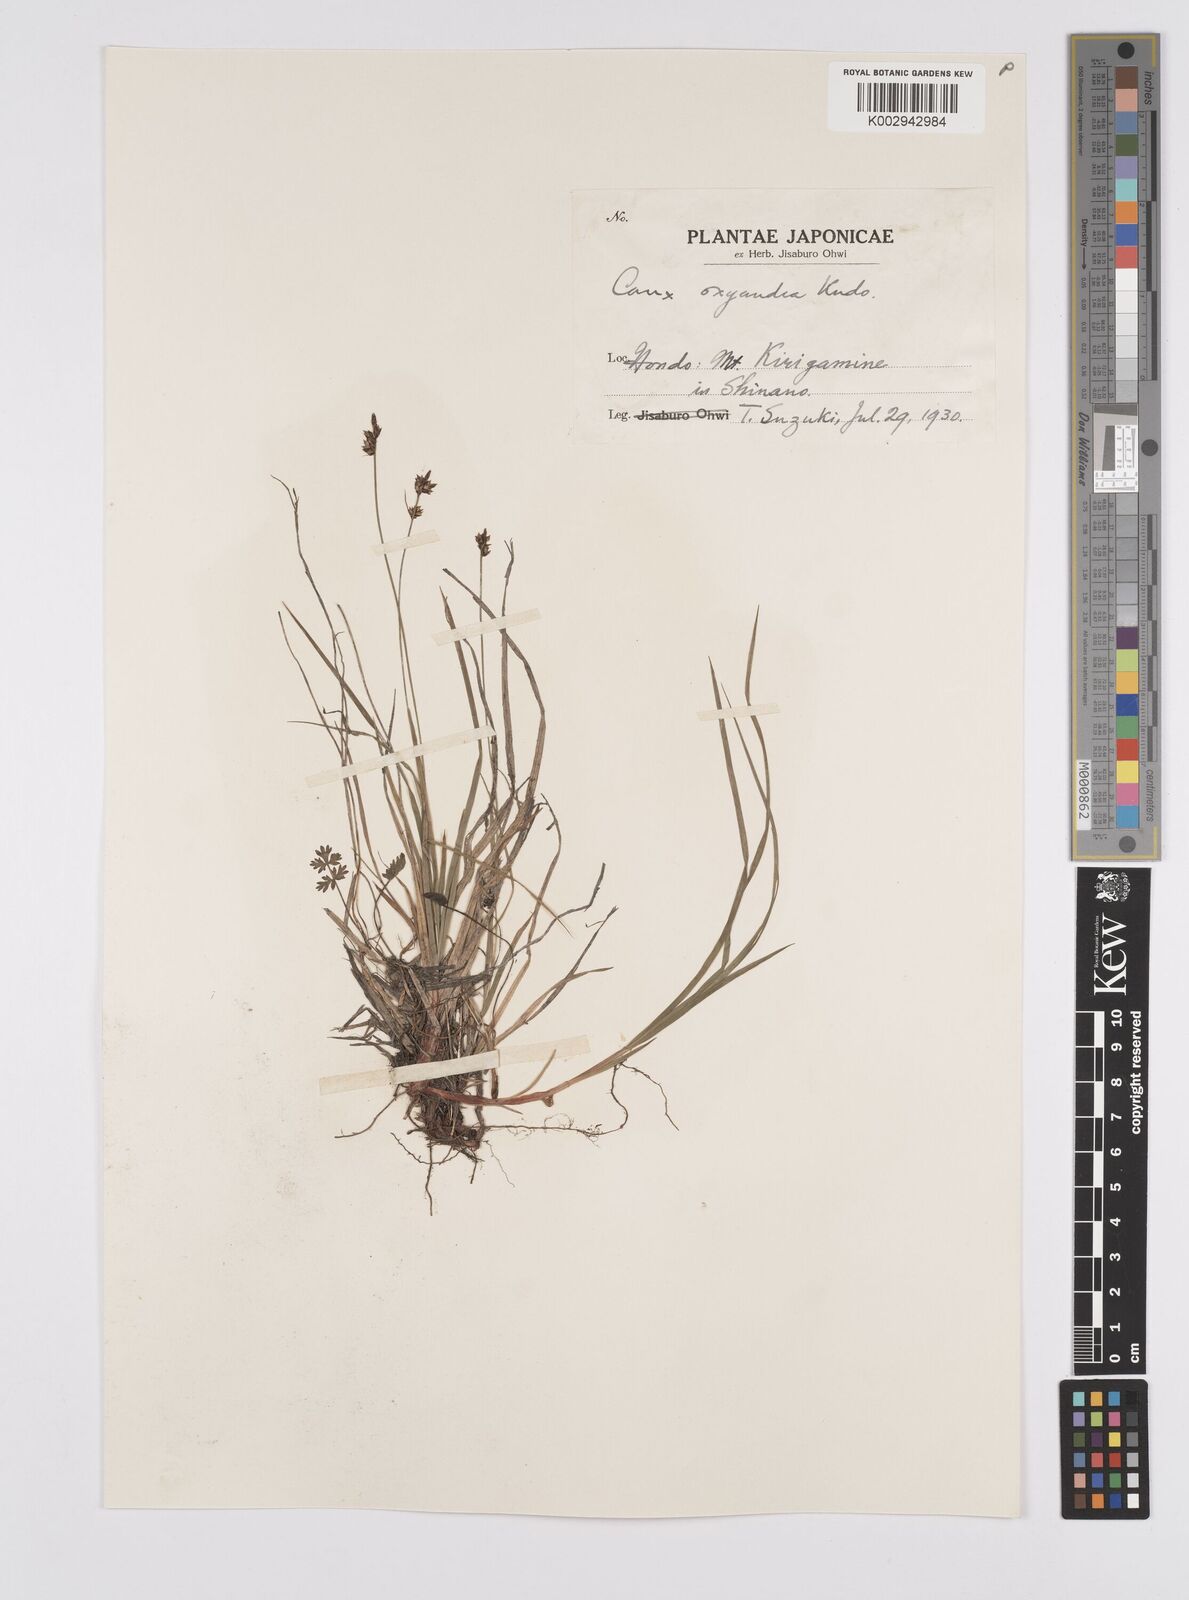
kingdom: Plantae
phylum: Tracheophyta
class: Liliopsida
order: Poales
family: Cyperaceae
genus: Carex
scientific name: Carex oxyandra
